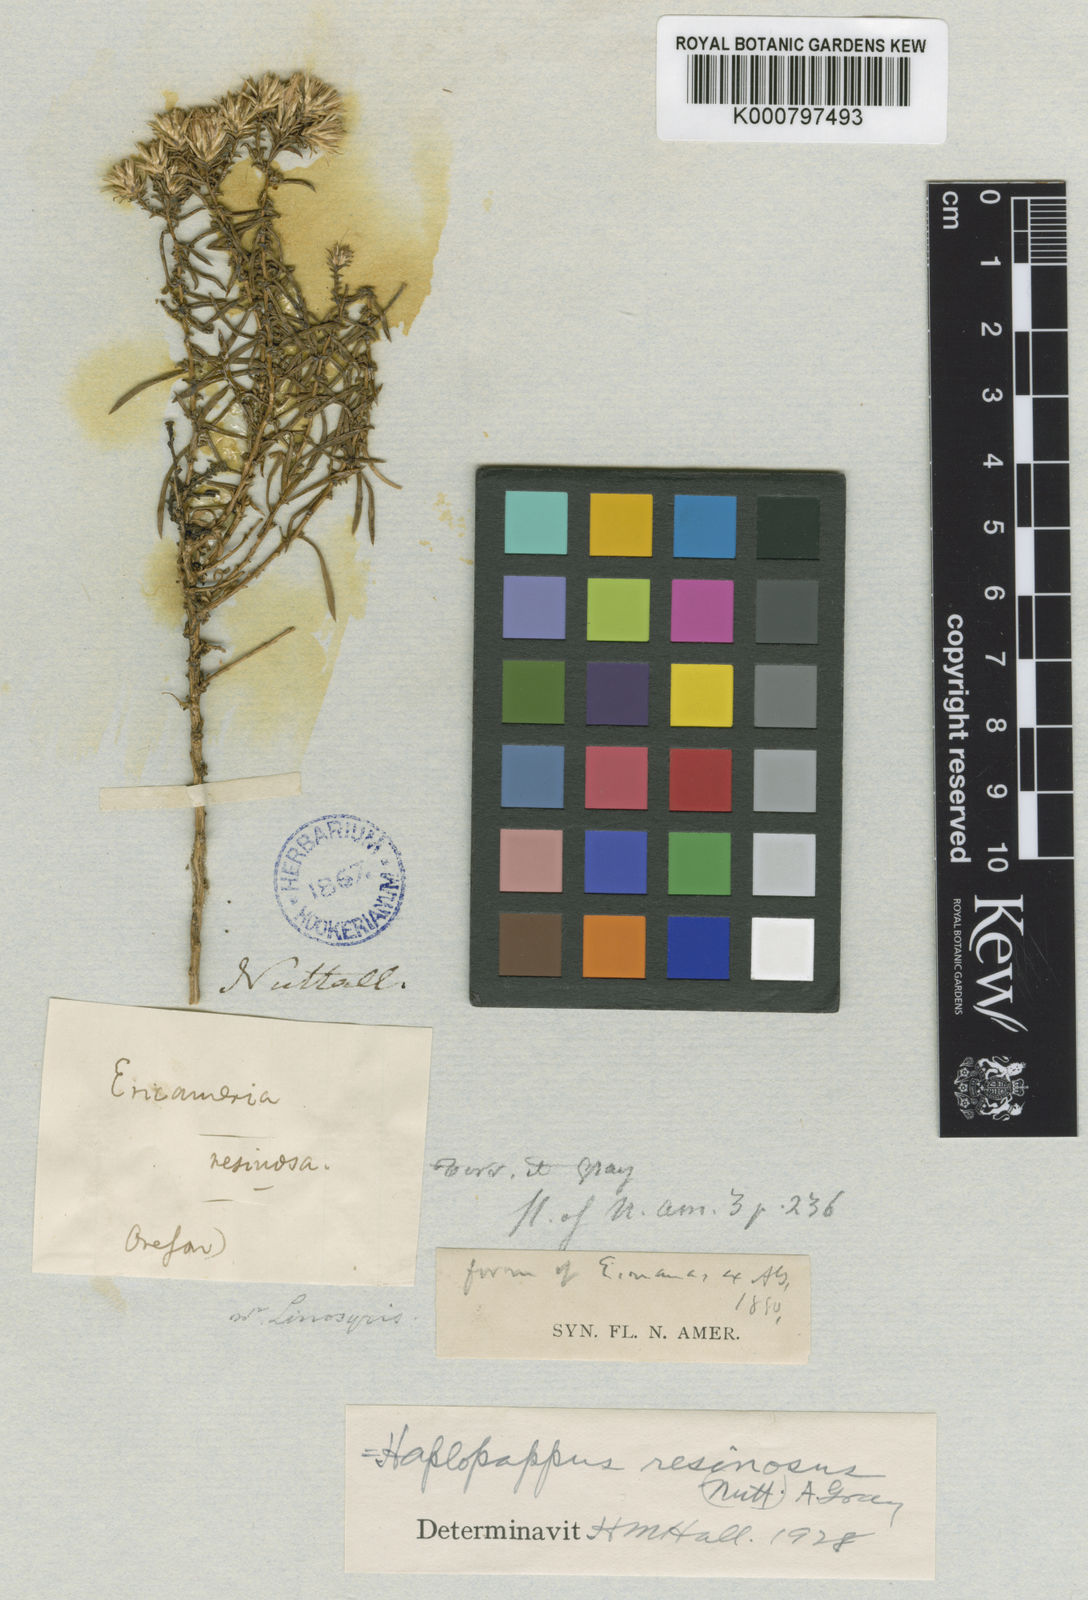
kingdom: Plantae
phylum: Tracheophyta
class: Magnoliopsida
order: Asterales
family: Asteraceae
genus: Ericameria
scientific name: Ericameria resinosa
